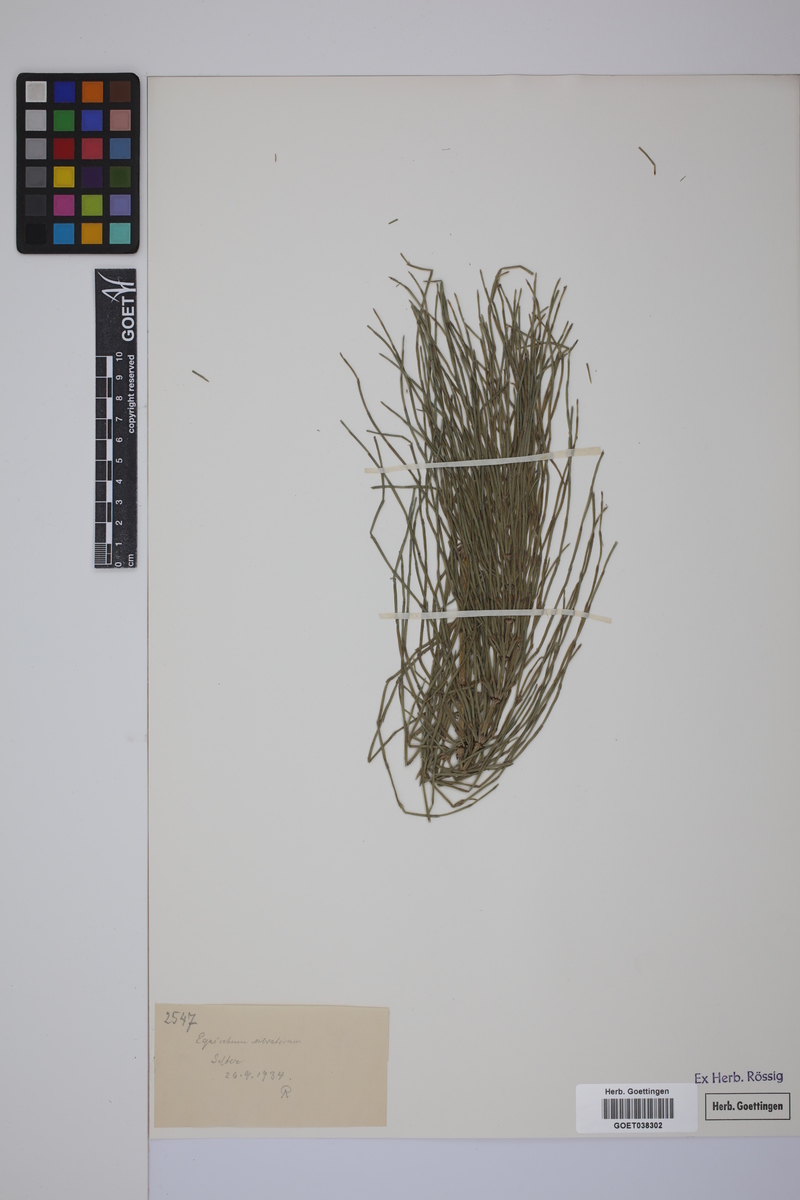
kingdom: Plantae
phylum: Tracheophyta
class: Polypodiopsida
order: Equisetales
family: Equisetaceae
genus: Equisetum
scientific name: Equisetum arvense
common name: Field horsetail
